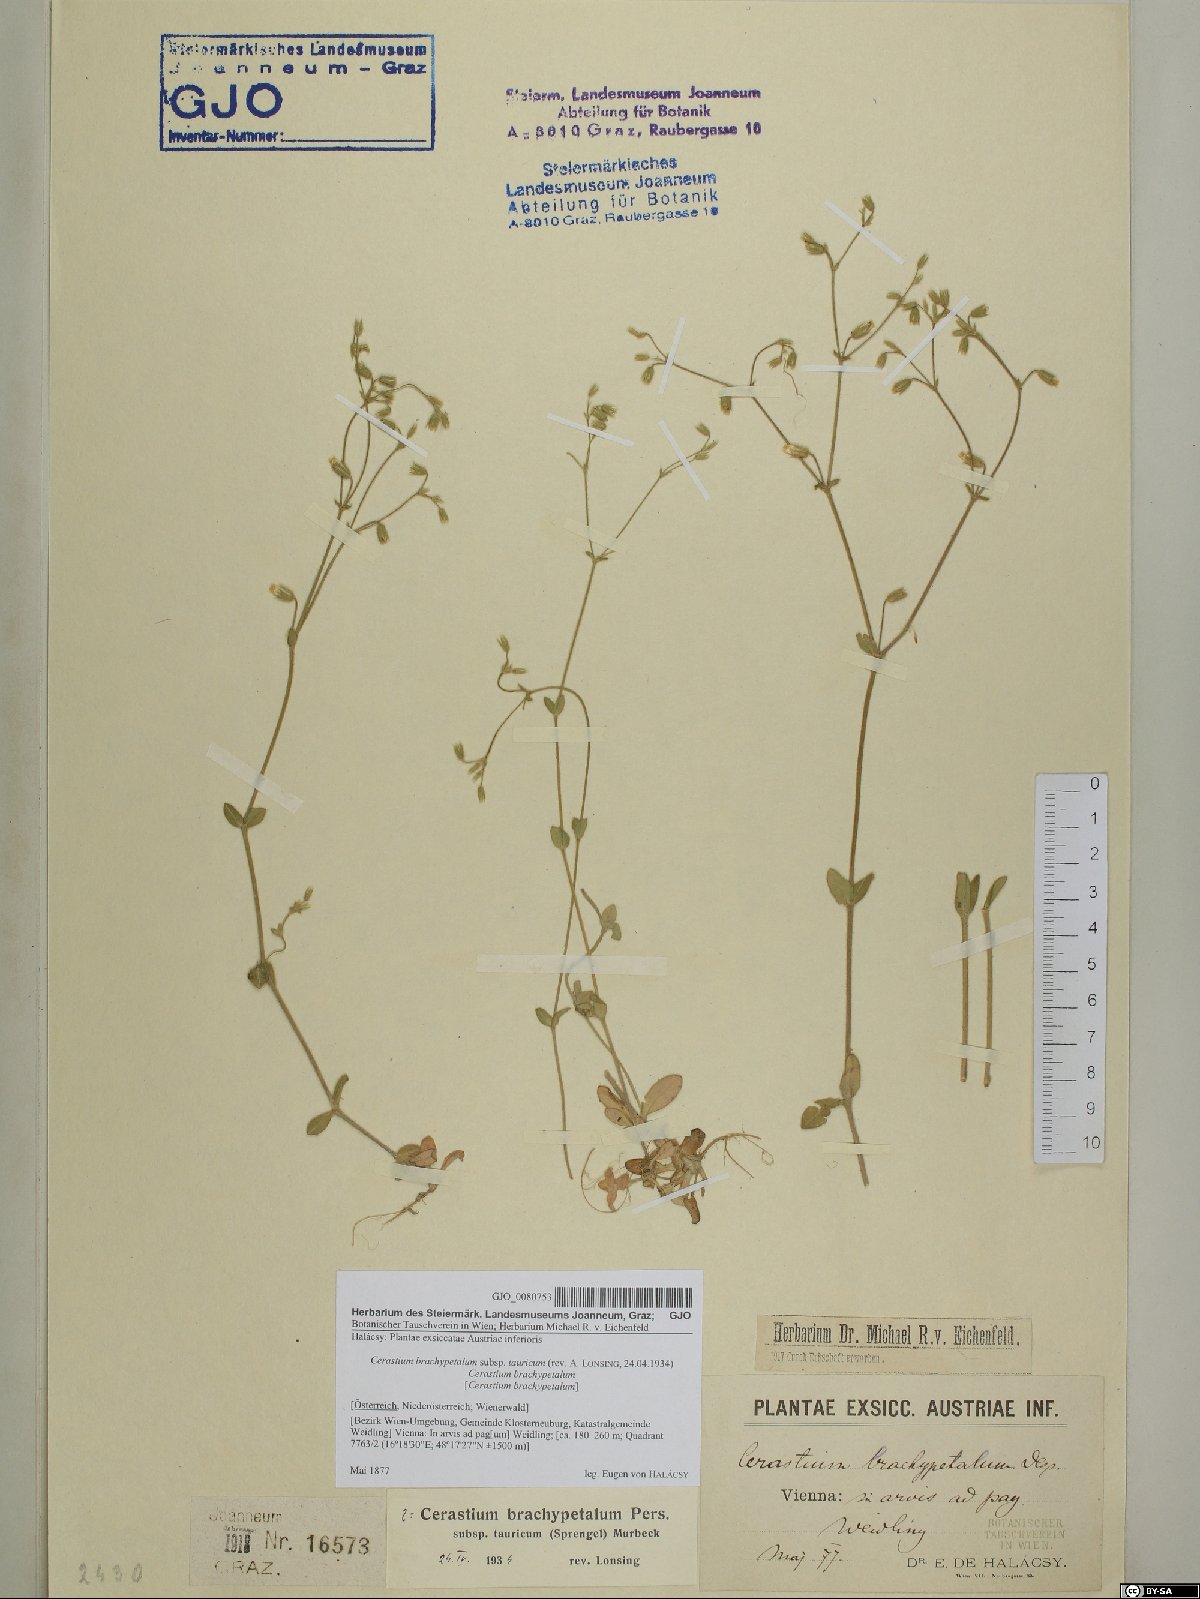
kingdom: Plantae
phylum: Tracheophyta
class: Magnoliopsida
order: Caryophyllales
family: Caryophyllaceae
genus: Cerastium
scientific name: Cerastium brachypetalum
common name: Grey mouse-ear
